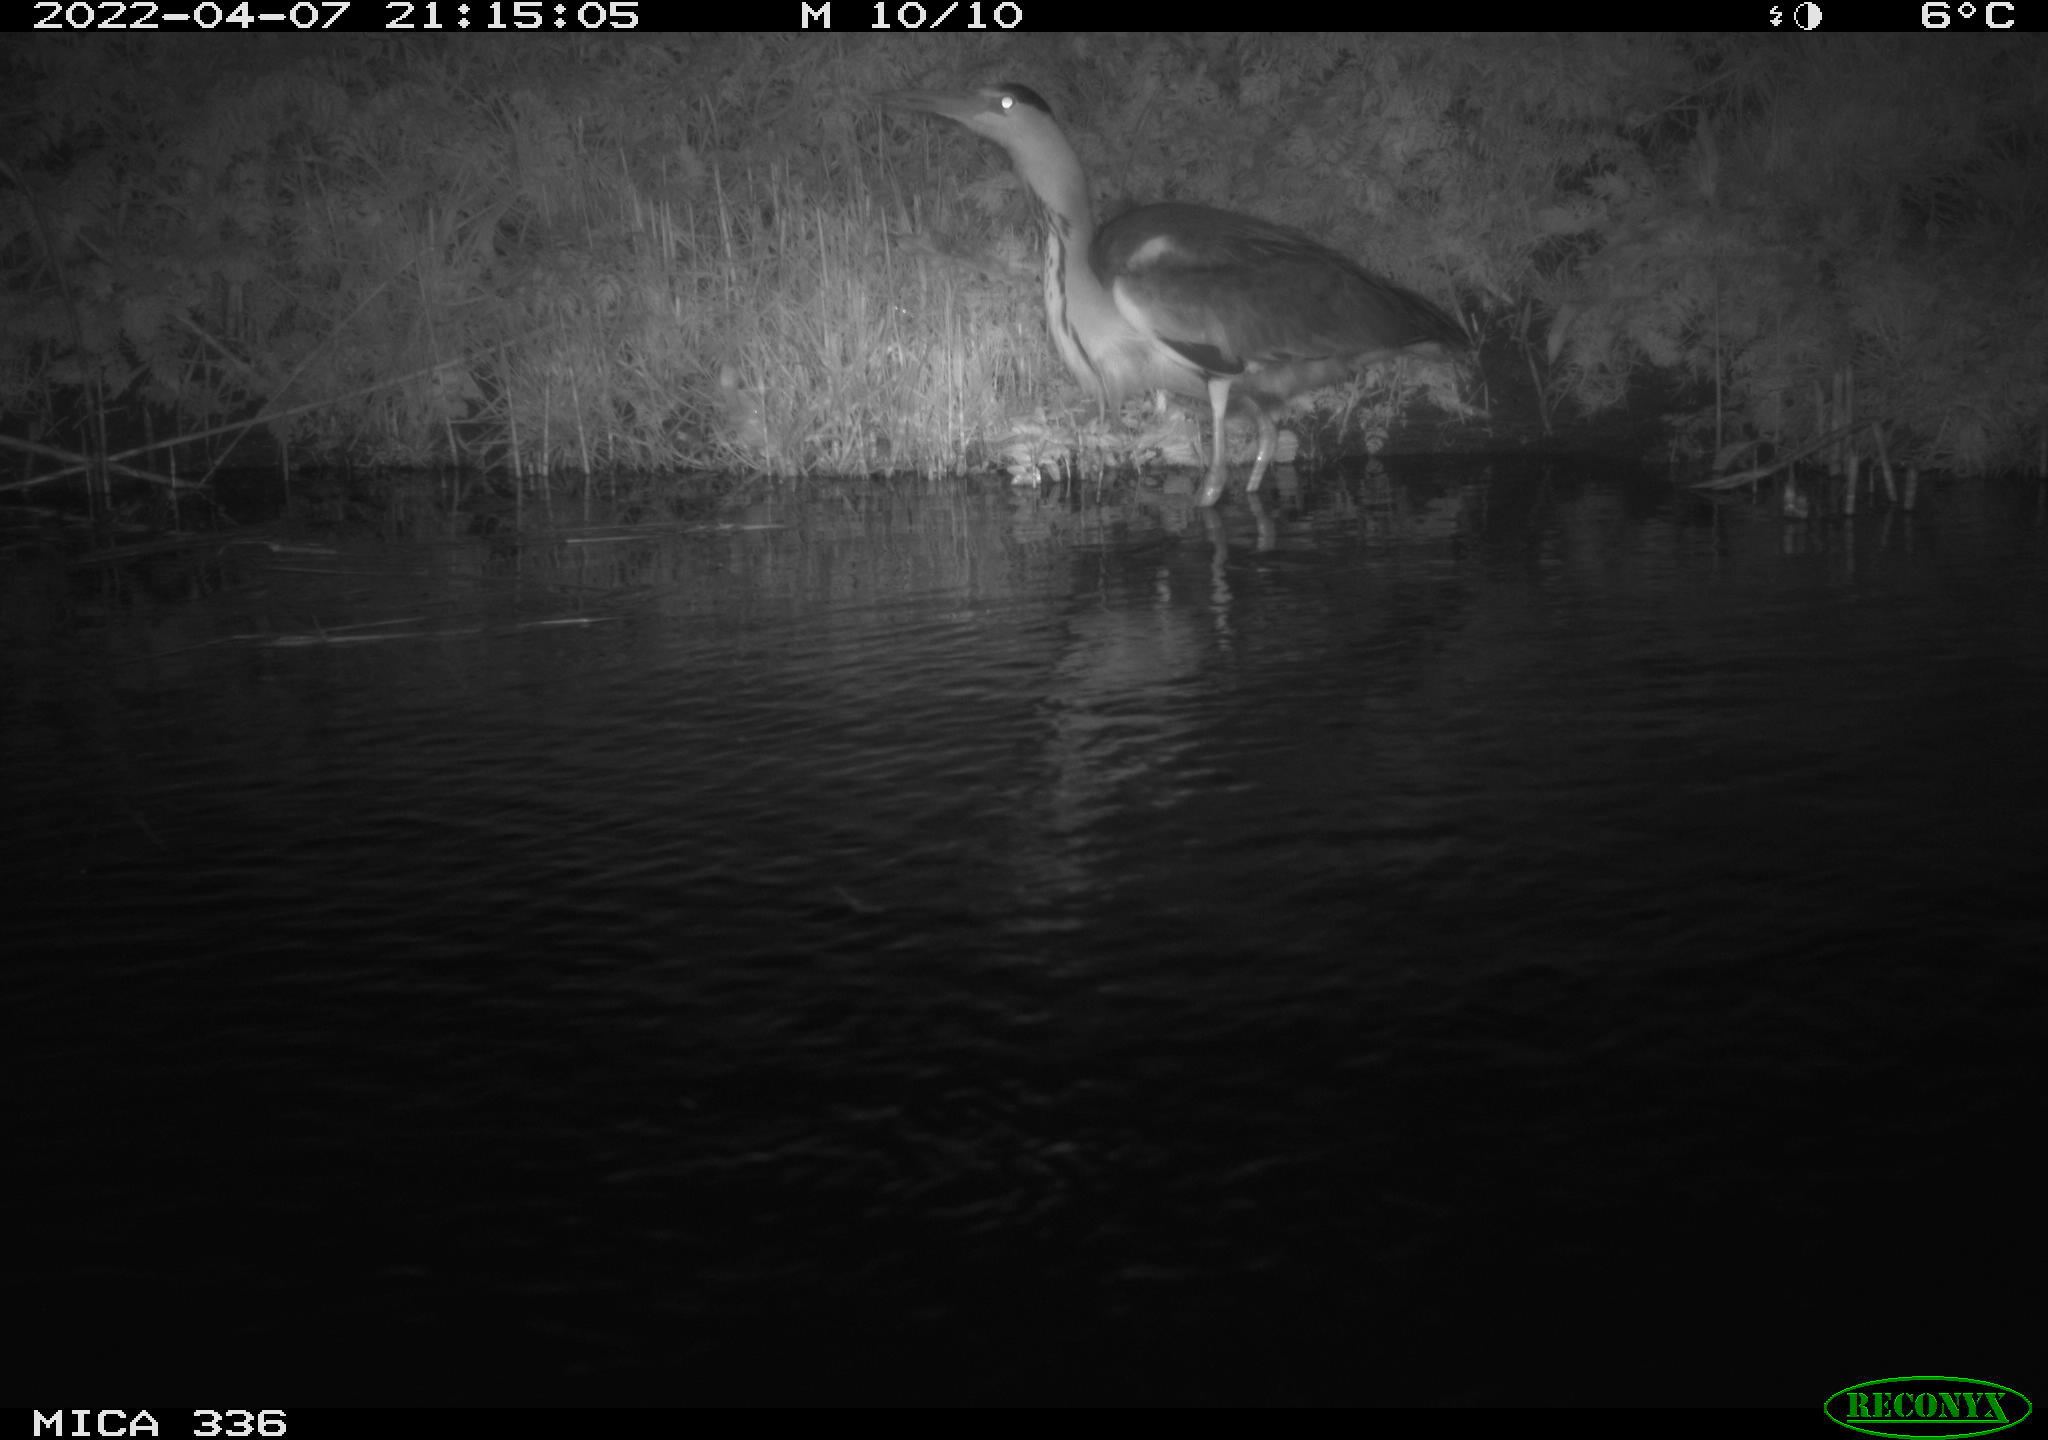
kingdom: Animalia
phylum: Chordata
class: Aves
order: Pelecaniformes
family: Ardeidae
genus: Ardea
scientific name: Ardea
